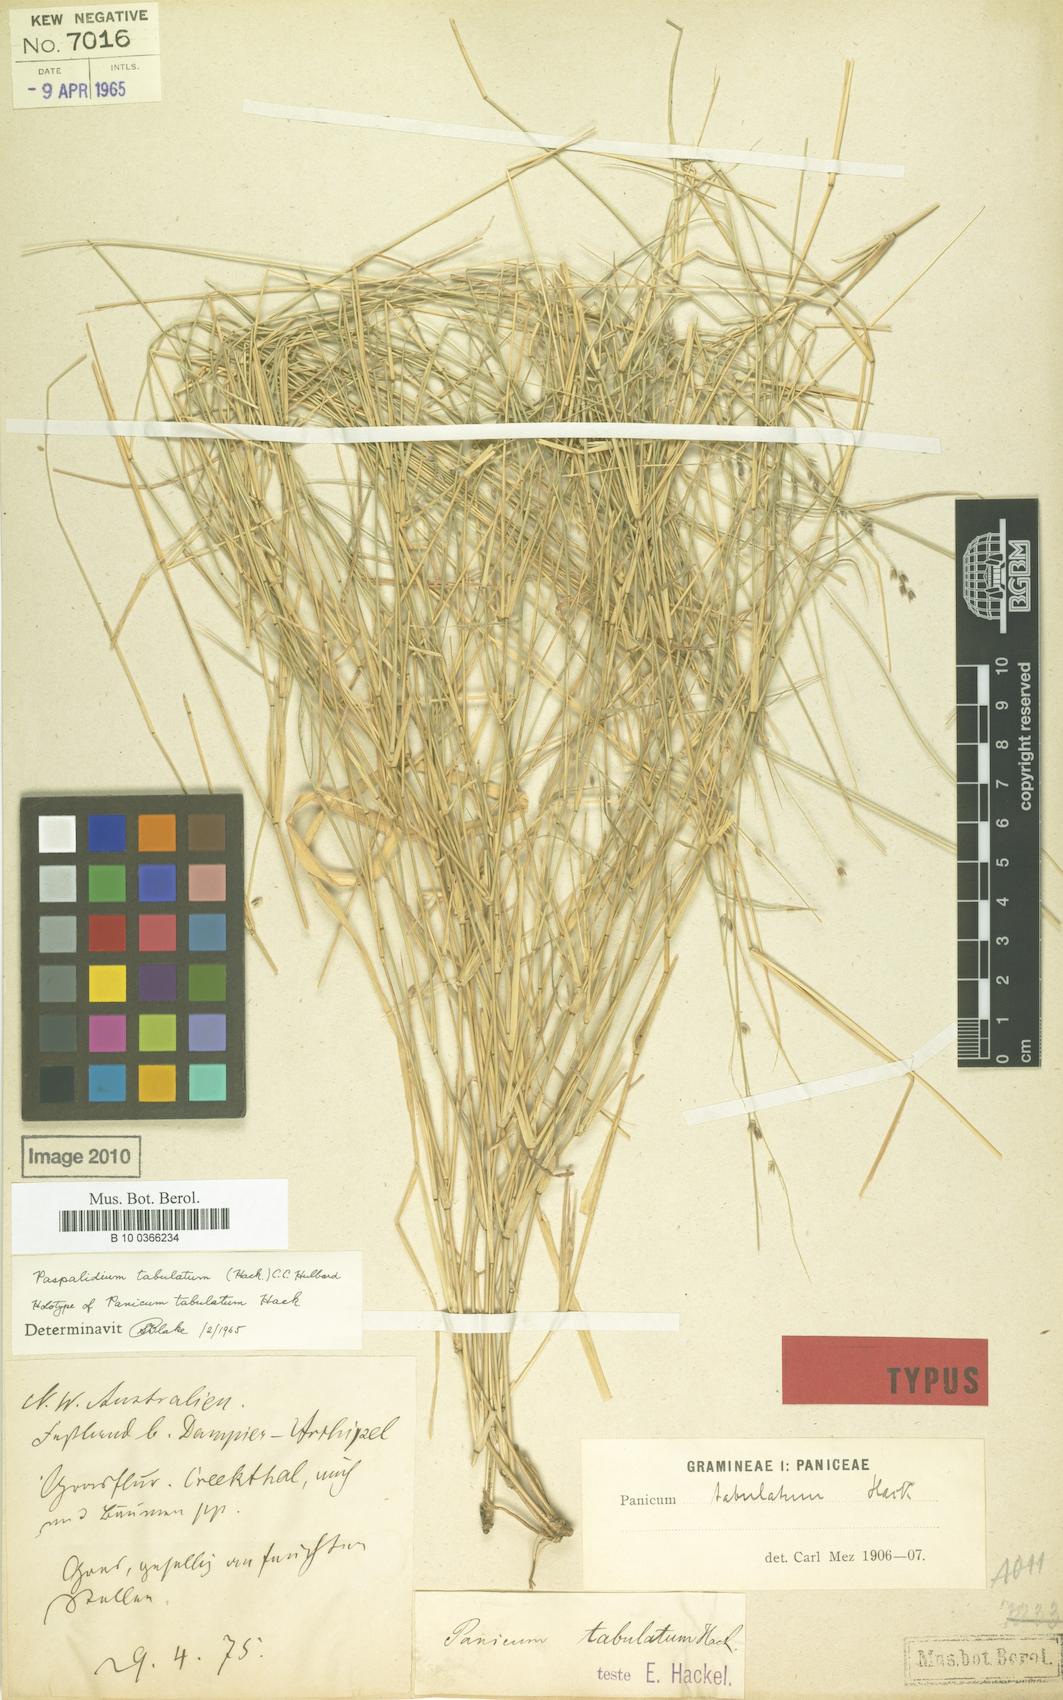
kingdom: Plantae
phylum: Tracheophyta
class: Liliopsida
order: Poales
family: Poaceae
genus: Setaria
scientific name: Setaria tabulata
